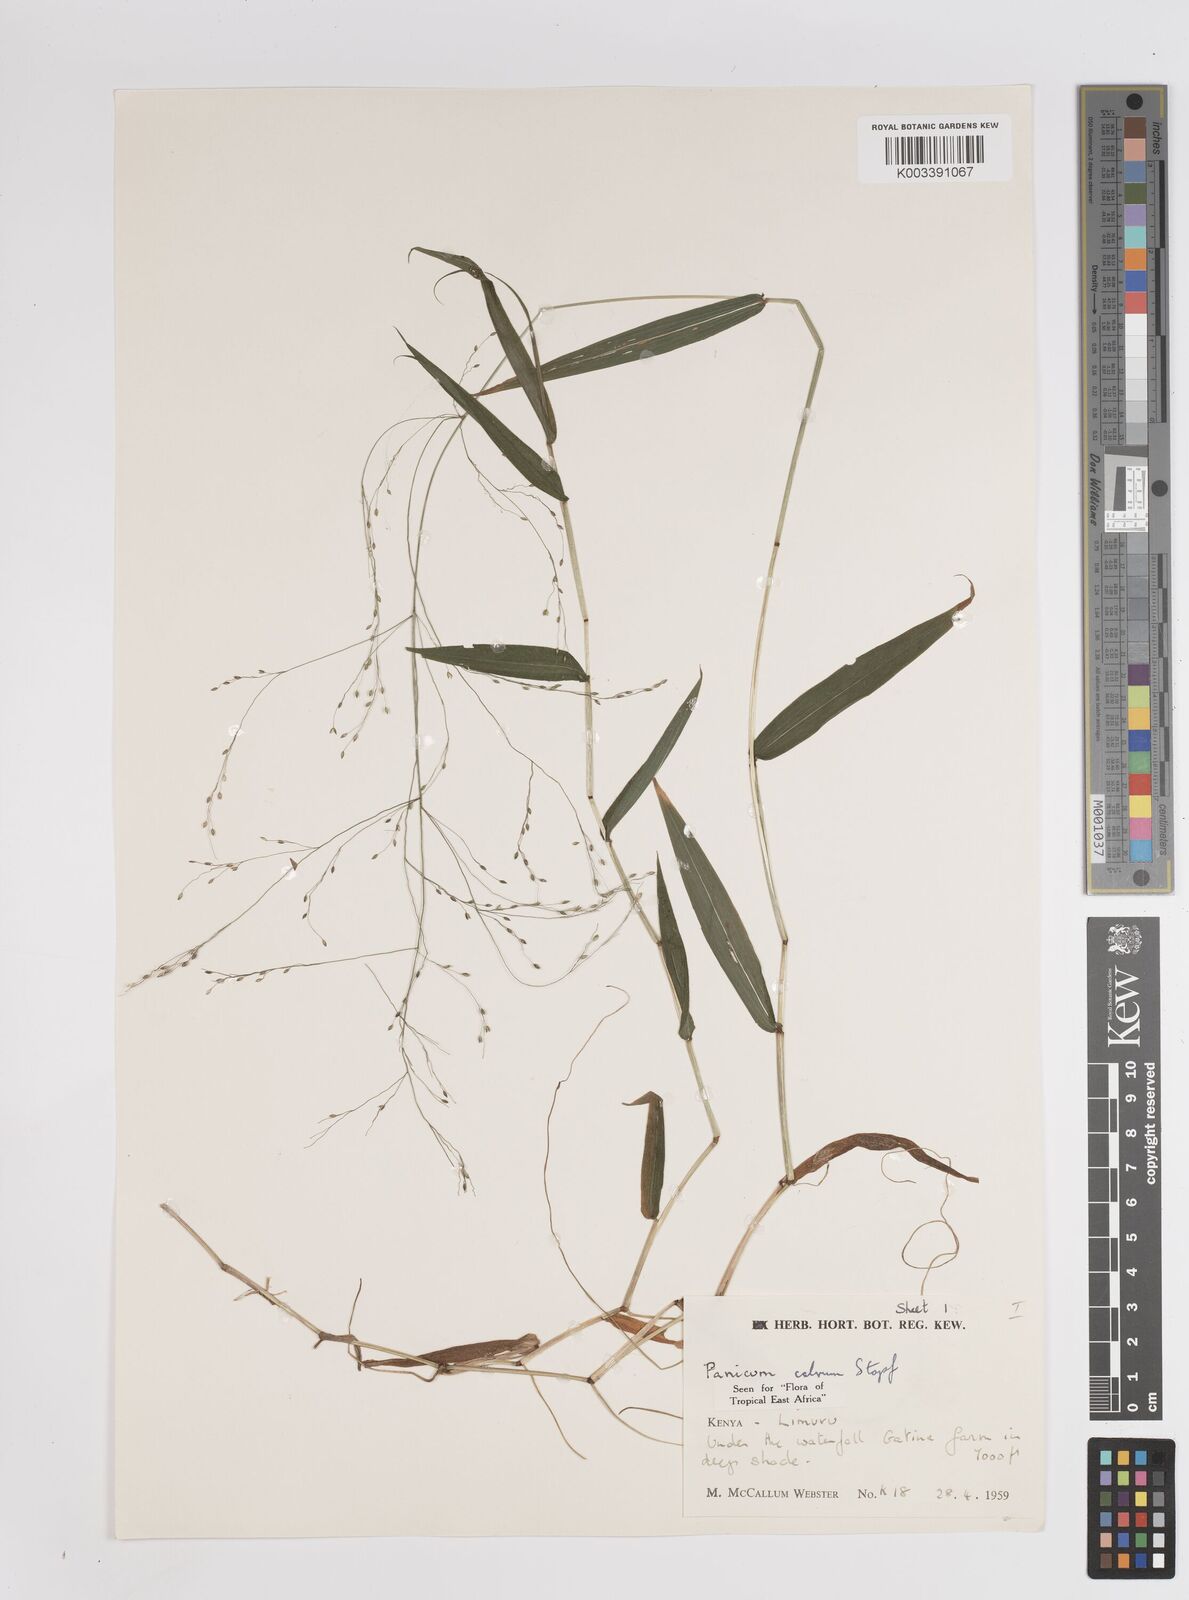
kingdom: Plantae
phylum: Tracheophyta
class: Liliopsida
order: Poales
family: Poaceae
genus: Panicum
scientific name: Panicum calvum
